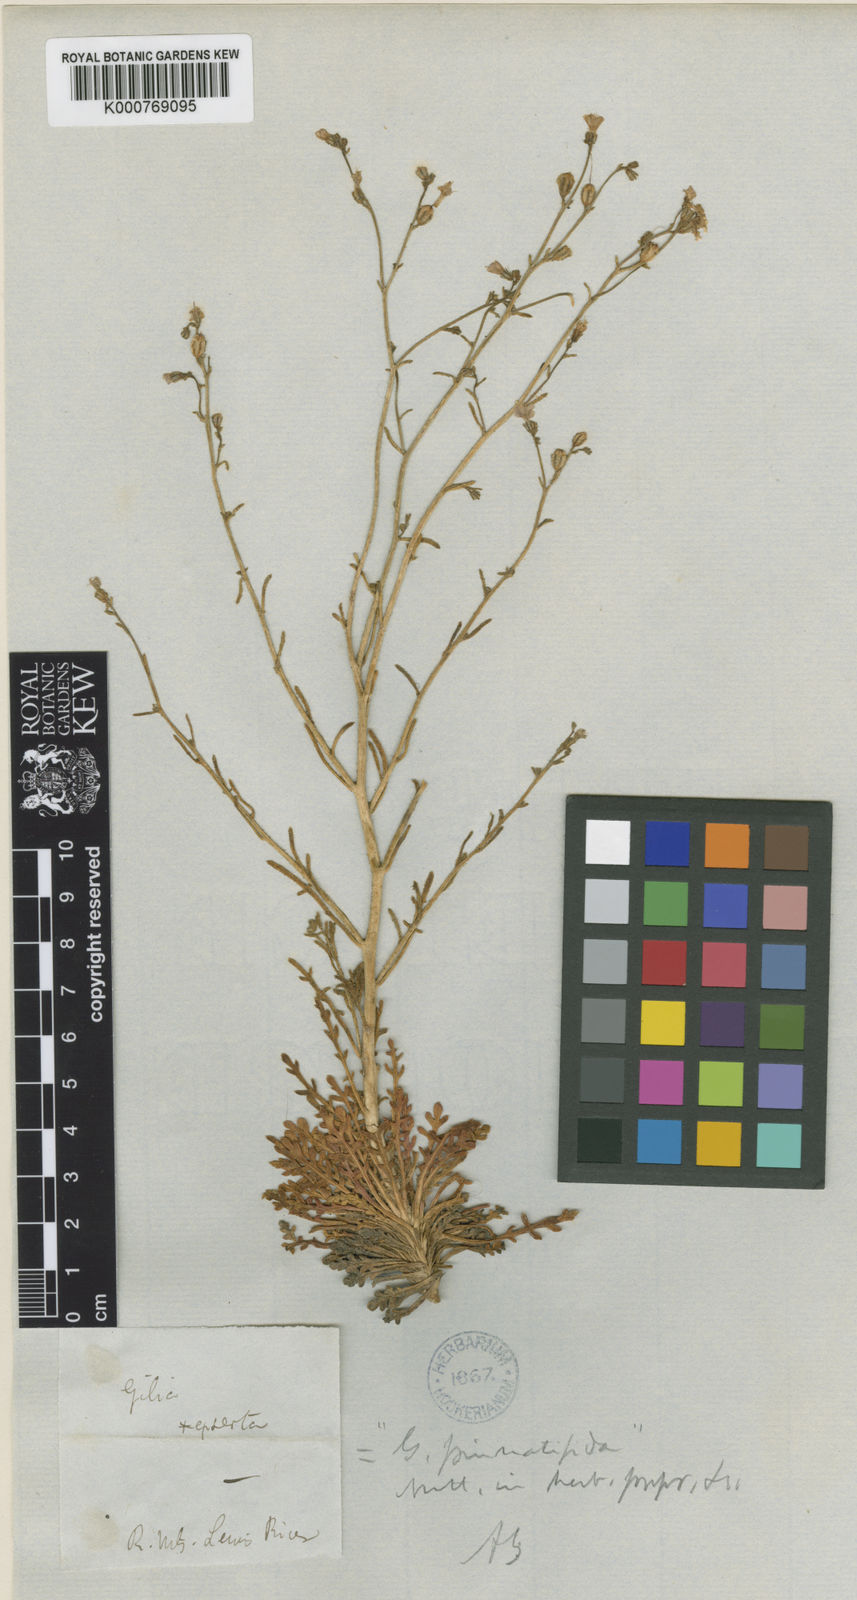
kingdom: Plantae
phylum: Tracheophyta
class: Magnoliopsida
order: Ericales
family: Polemoniaceae
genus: Aliciella
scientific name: Aliciella pinnatifida
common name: Sticky gilia
